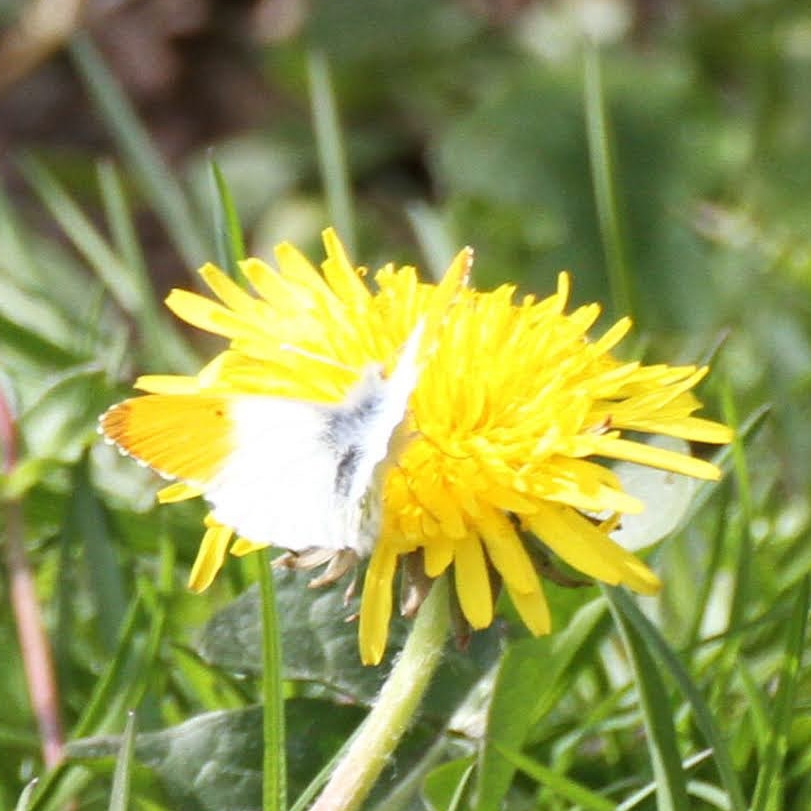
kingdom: Animalia
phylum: Arthropoda
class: Insecta
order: Lepidoptera
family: Pieridae
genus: Anthocharis
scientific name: Anthocharis cardamines
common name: Aurora
